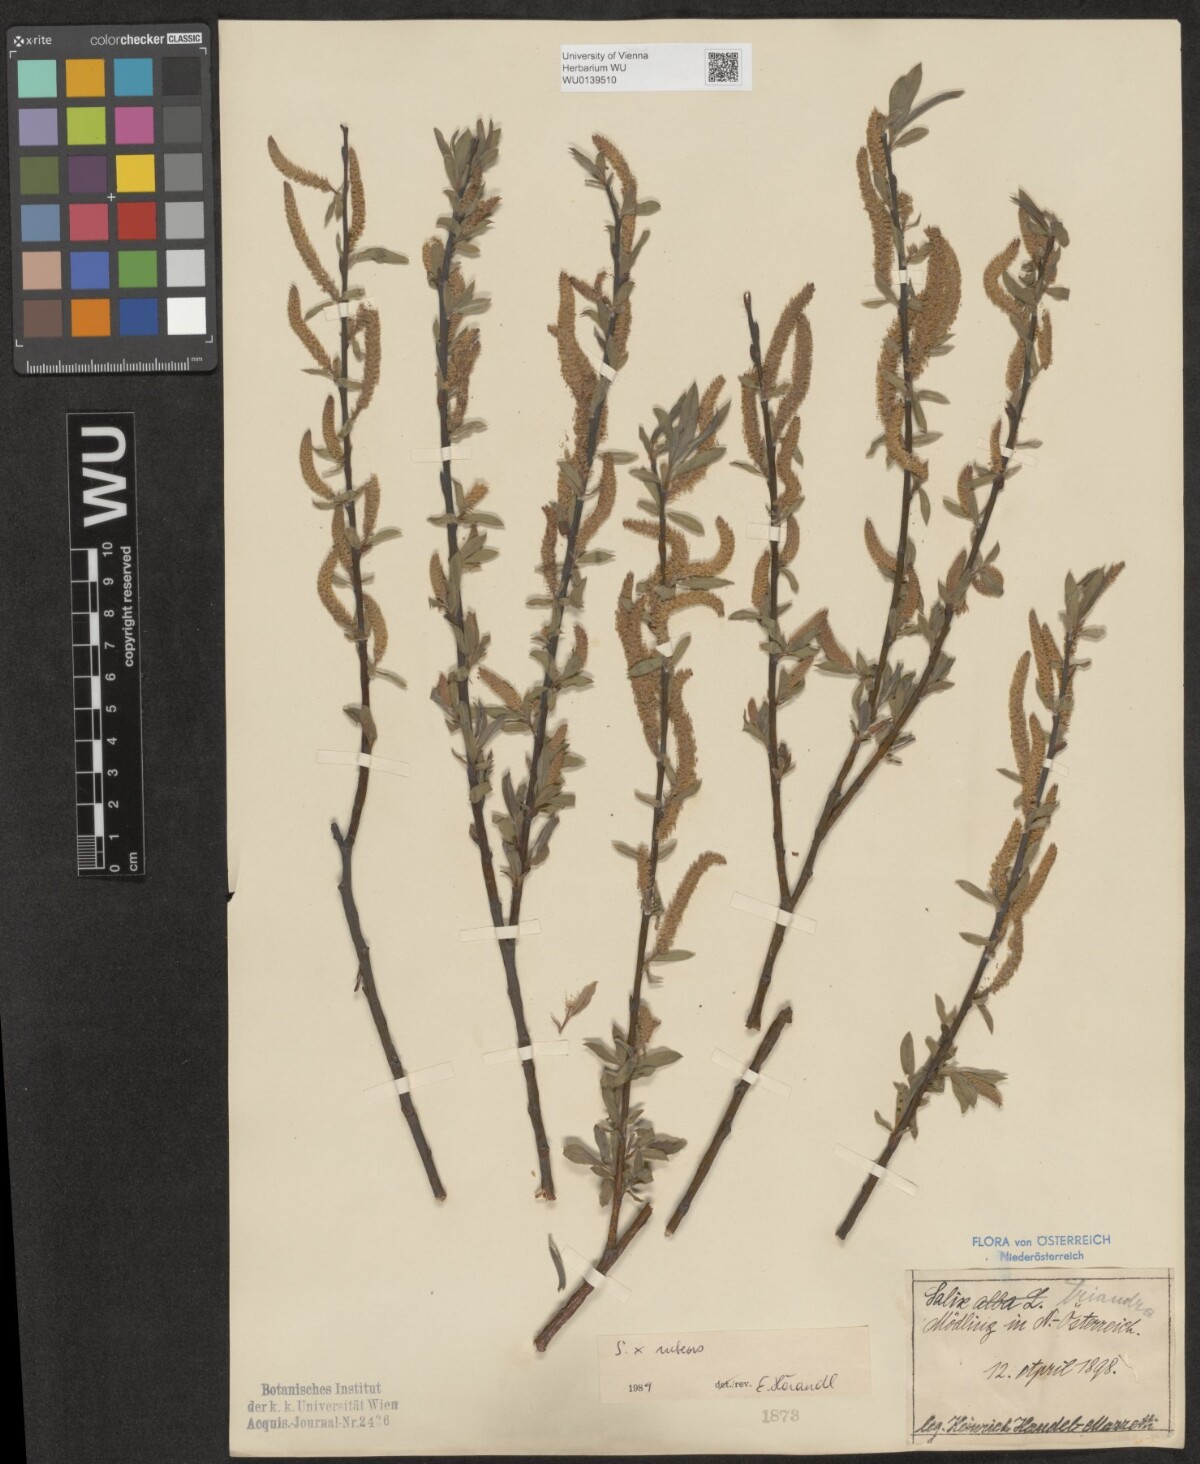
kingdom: Plantae
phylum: Tracheophyta
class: Magnoliopsida
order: Malpighiales
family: Salicaceae
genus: Salix
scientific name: Salix rubens
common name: Hybrid crack willow
